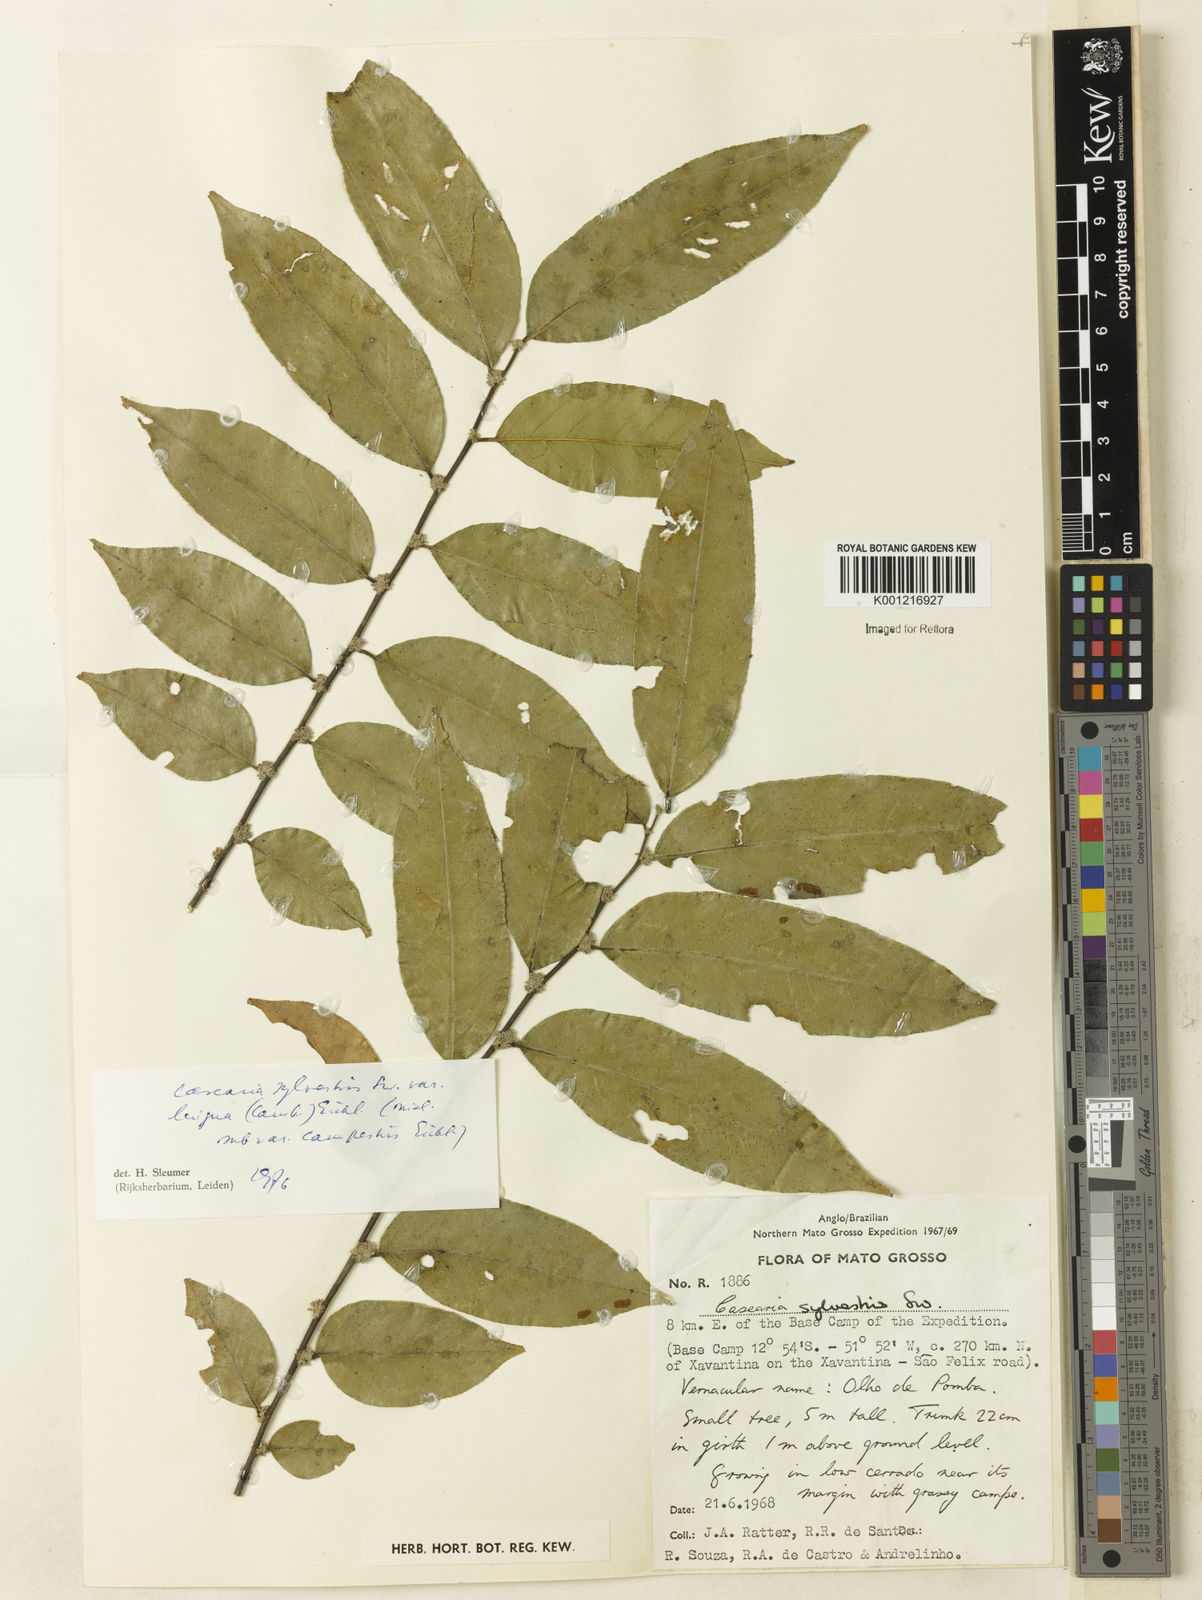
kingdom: Plantae
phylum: Tracheophyta
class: Magnoliopsida
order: Malpighiales
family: Salicaceae
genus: Casearia
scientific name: Casearia sylvestris
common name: Wild sage
